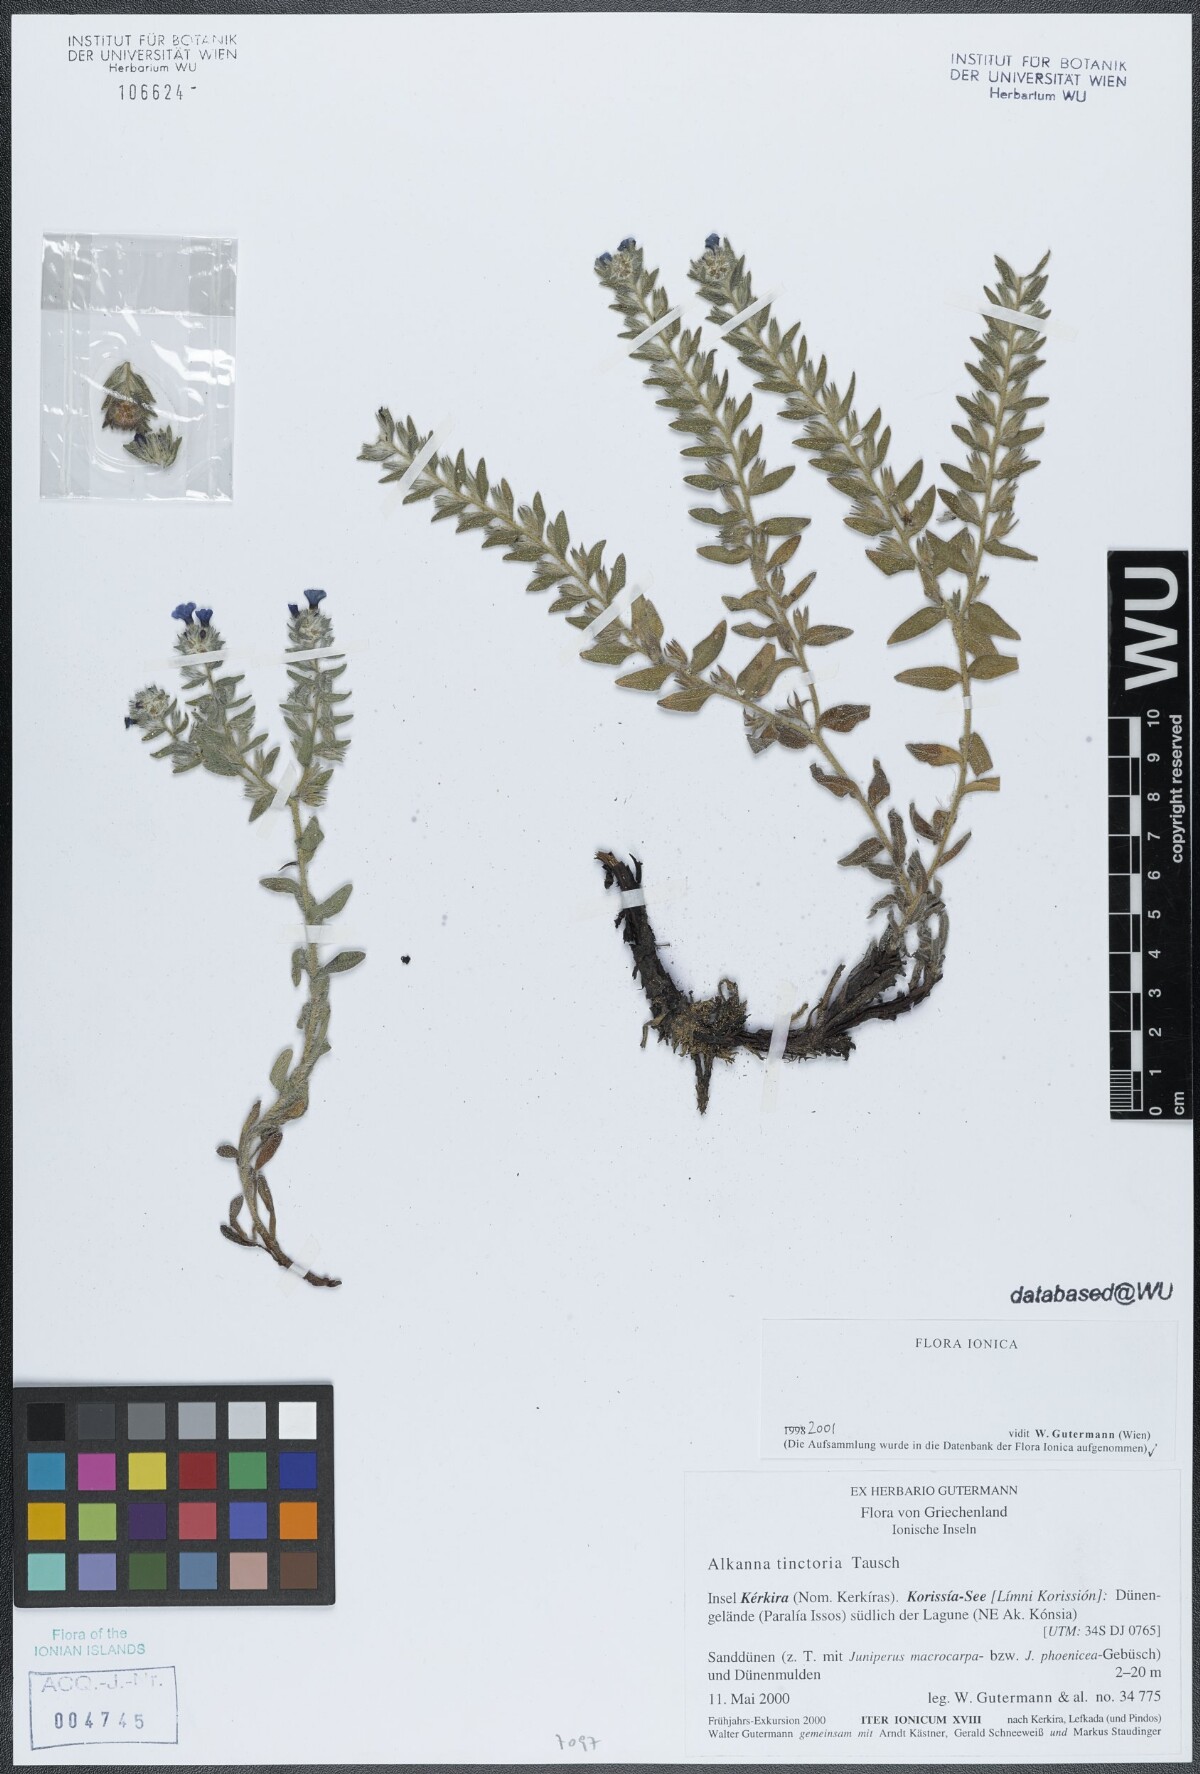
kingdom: Plantae
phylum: Tracheophyta
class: Magnoliopsida
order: Boraginales
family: Boraginaceae
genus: Alkanna
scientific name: Alkanna tinctoria
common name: Dyer's-alkanet
